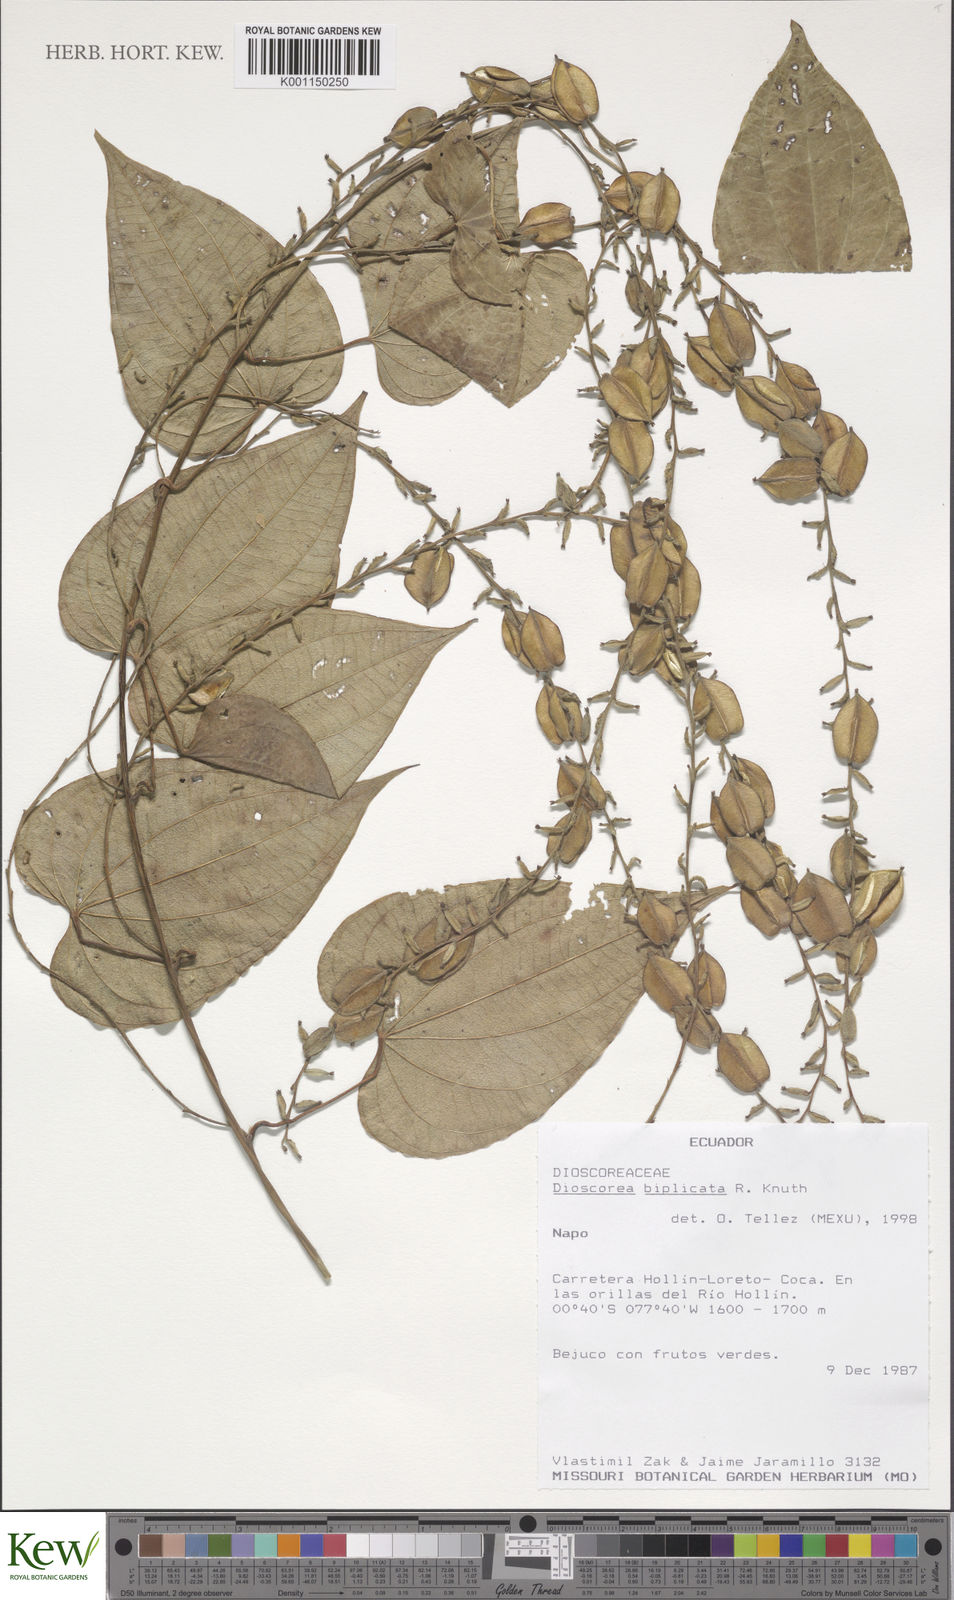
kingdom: Plantae
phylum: Tracheophyta
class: Liliopsida
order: Dioscoreales
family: Dioscoreaceae
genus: Dioscorea
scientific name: Dioscorea biplicata
